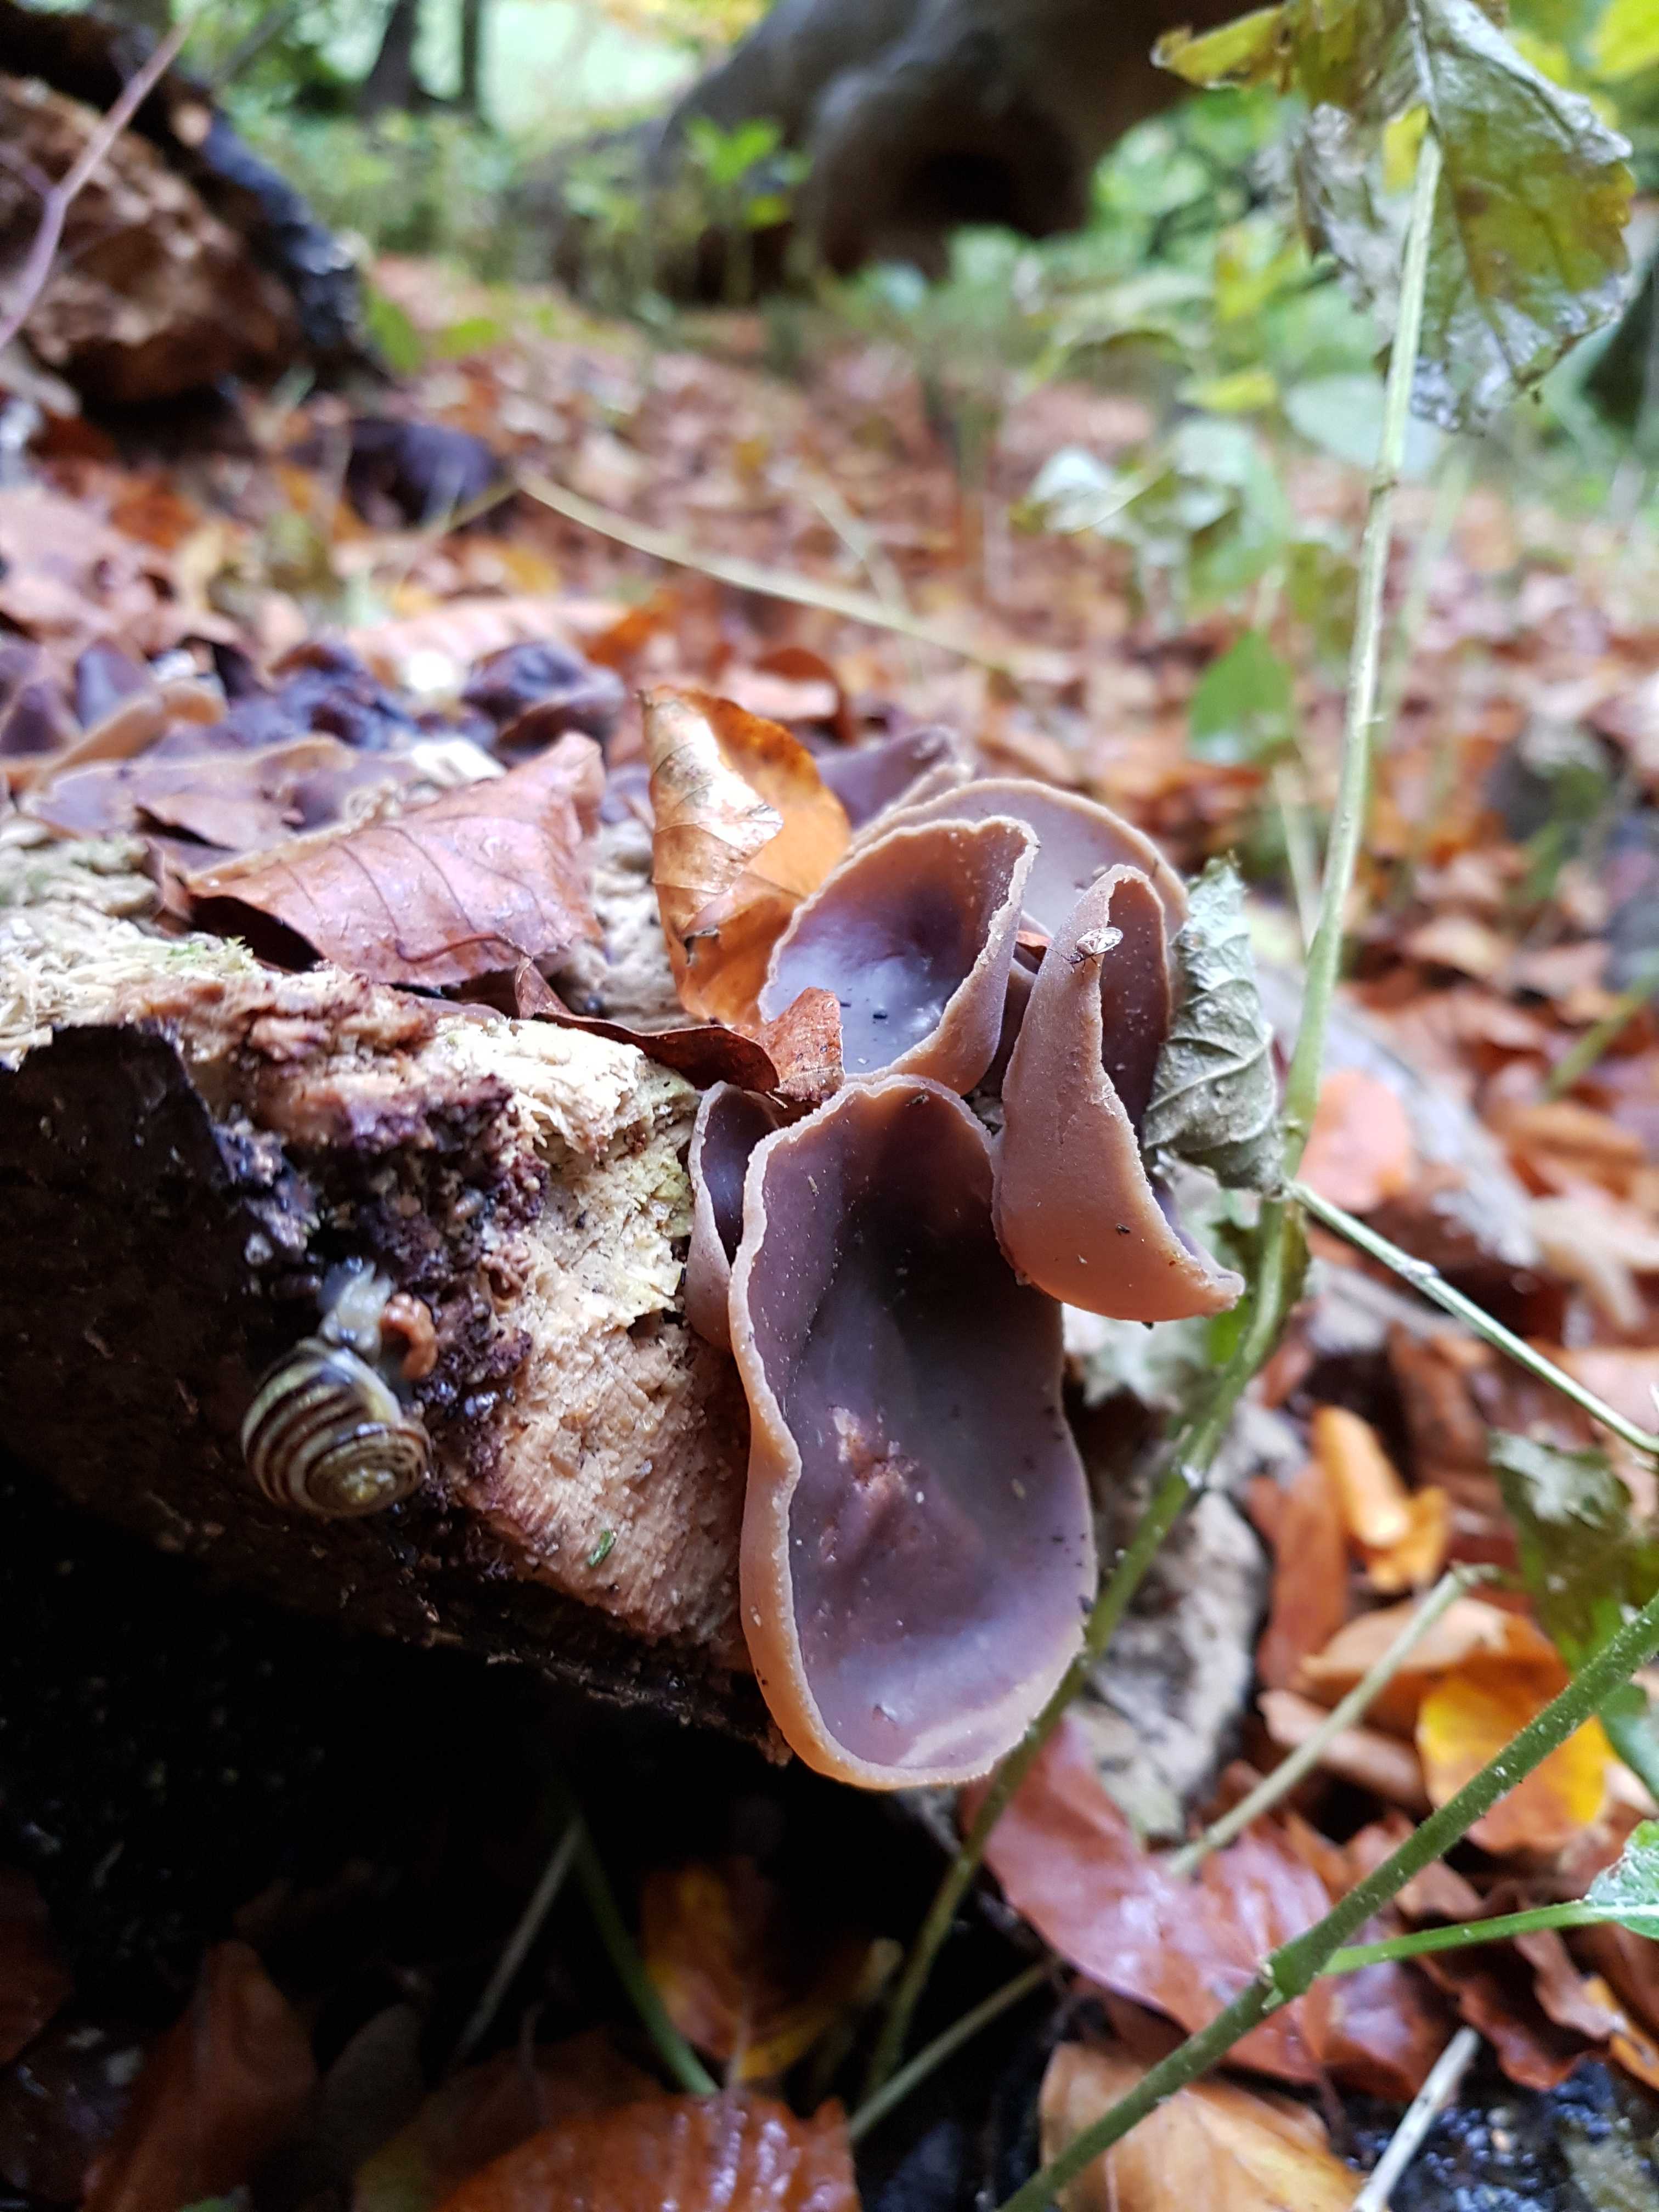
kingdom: Fungi
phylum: Ascomycota
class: Pezizomycetes
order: Pezizales
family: Pezizaceae
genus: Peziza
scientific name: Peziza varia
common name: Ved-bægersvamp
